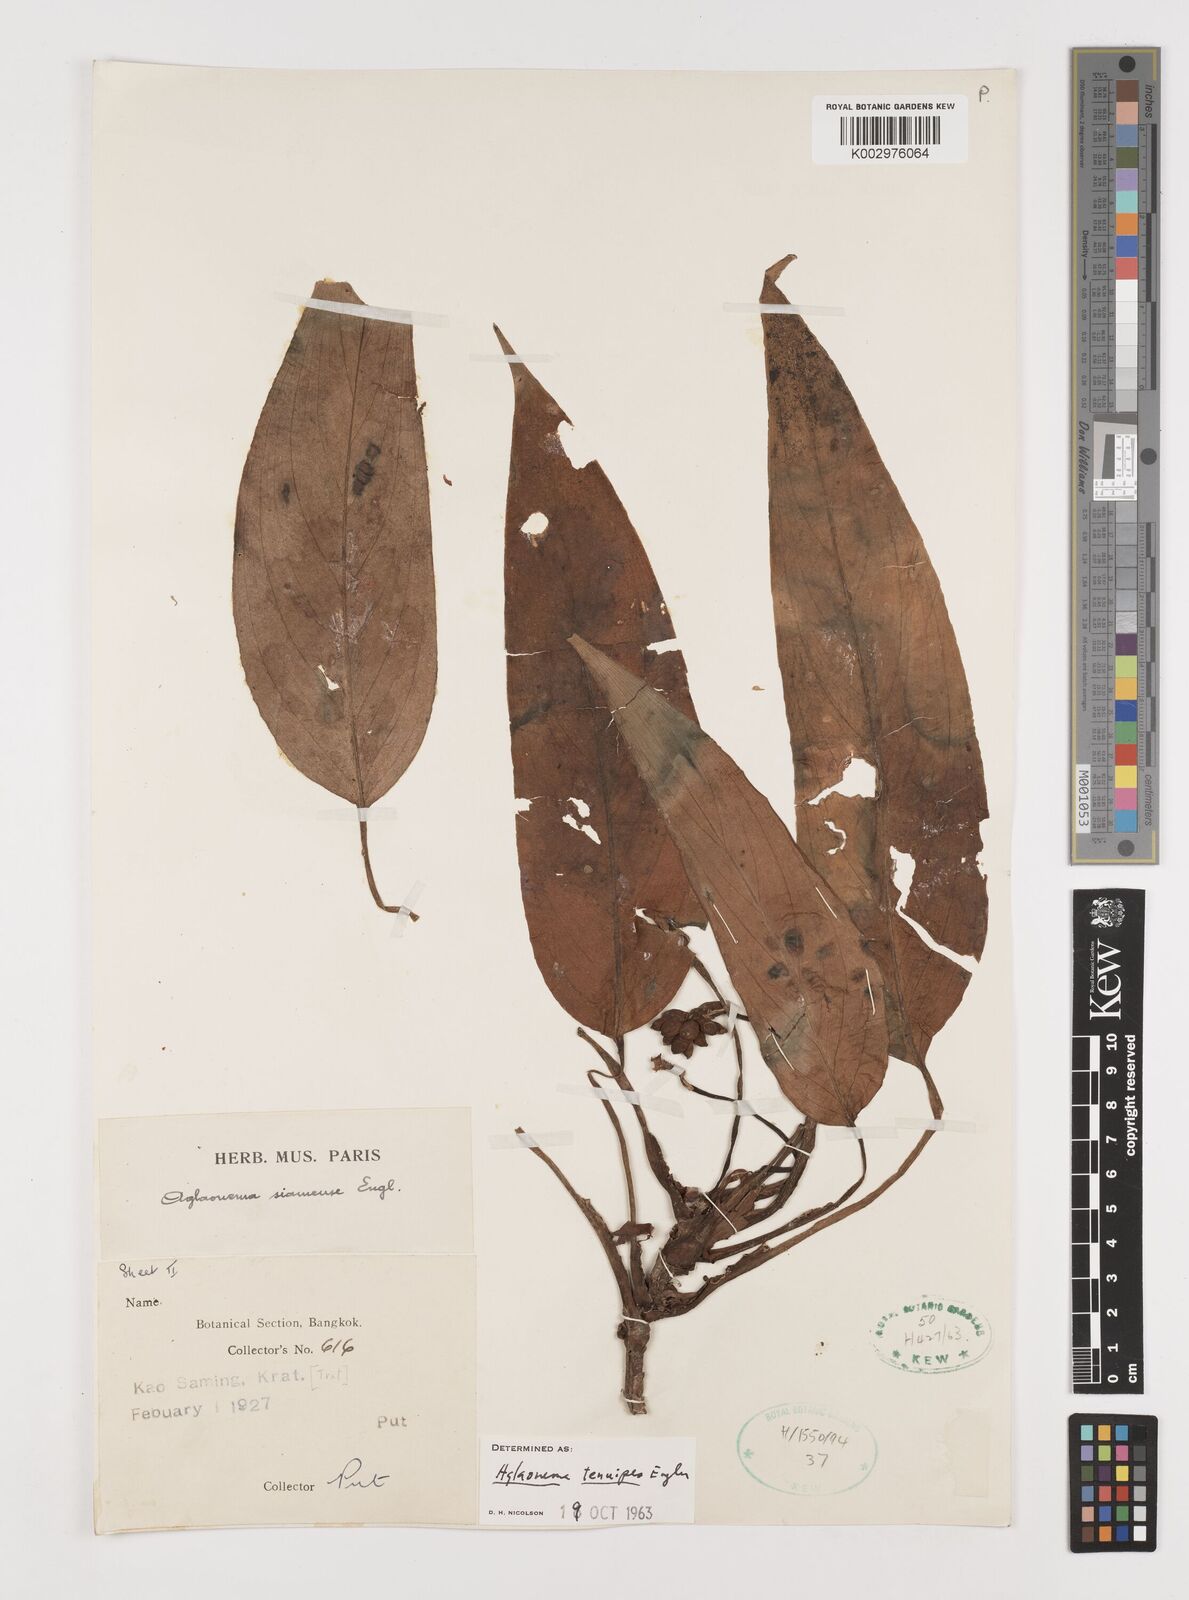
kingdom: Plantae
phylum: Tracheophyta
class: Liliopsida
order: Alismatales
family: Araceae
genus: Aglaonema
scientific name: Aglaonema simplex
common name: Malayan-sword
